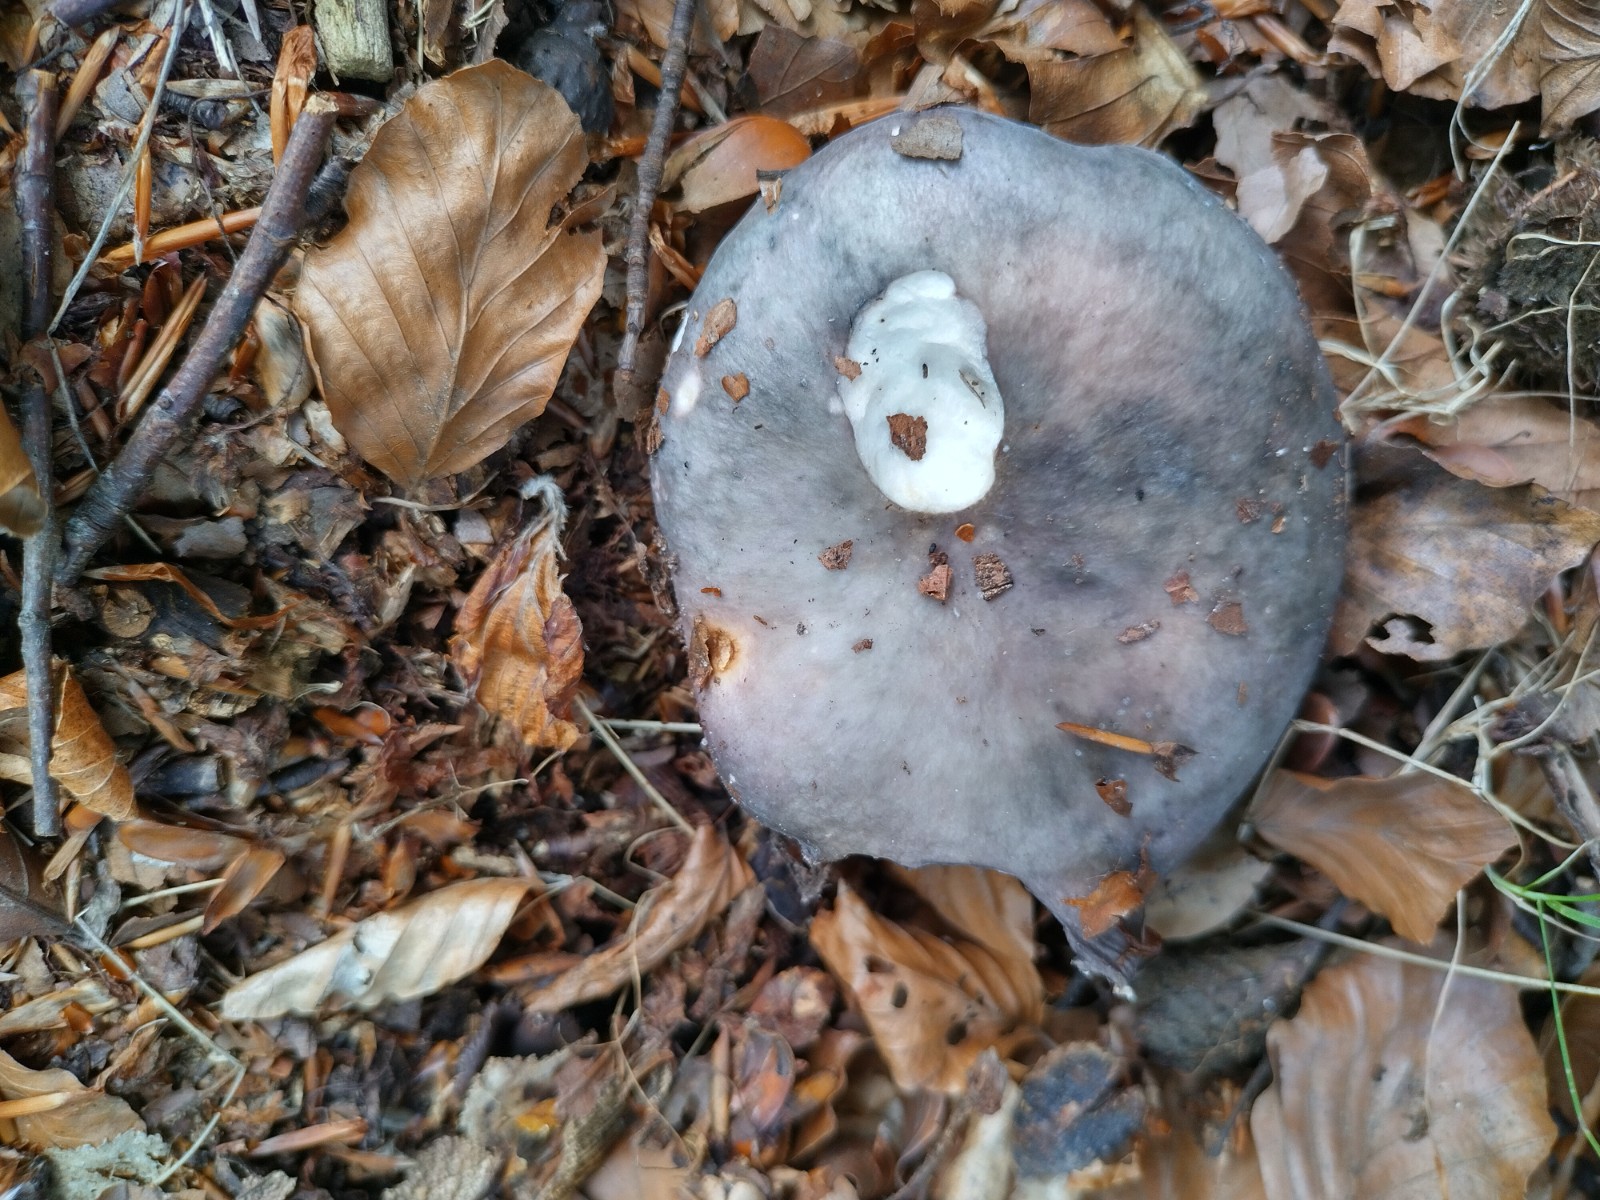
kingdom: Fungi
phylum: Basidiomycota
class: Agaricomycetes
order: Russulales
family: Russulaceae
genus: Russula
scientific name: Russula cyanoxantha
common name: broget skørhat
